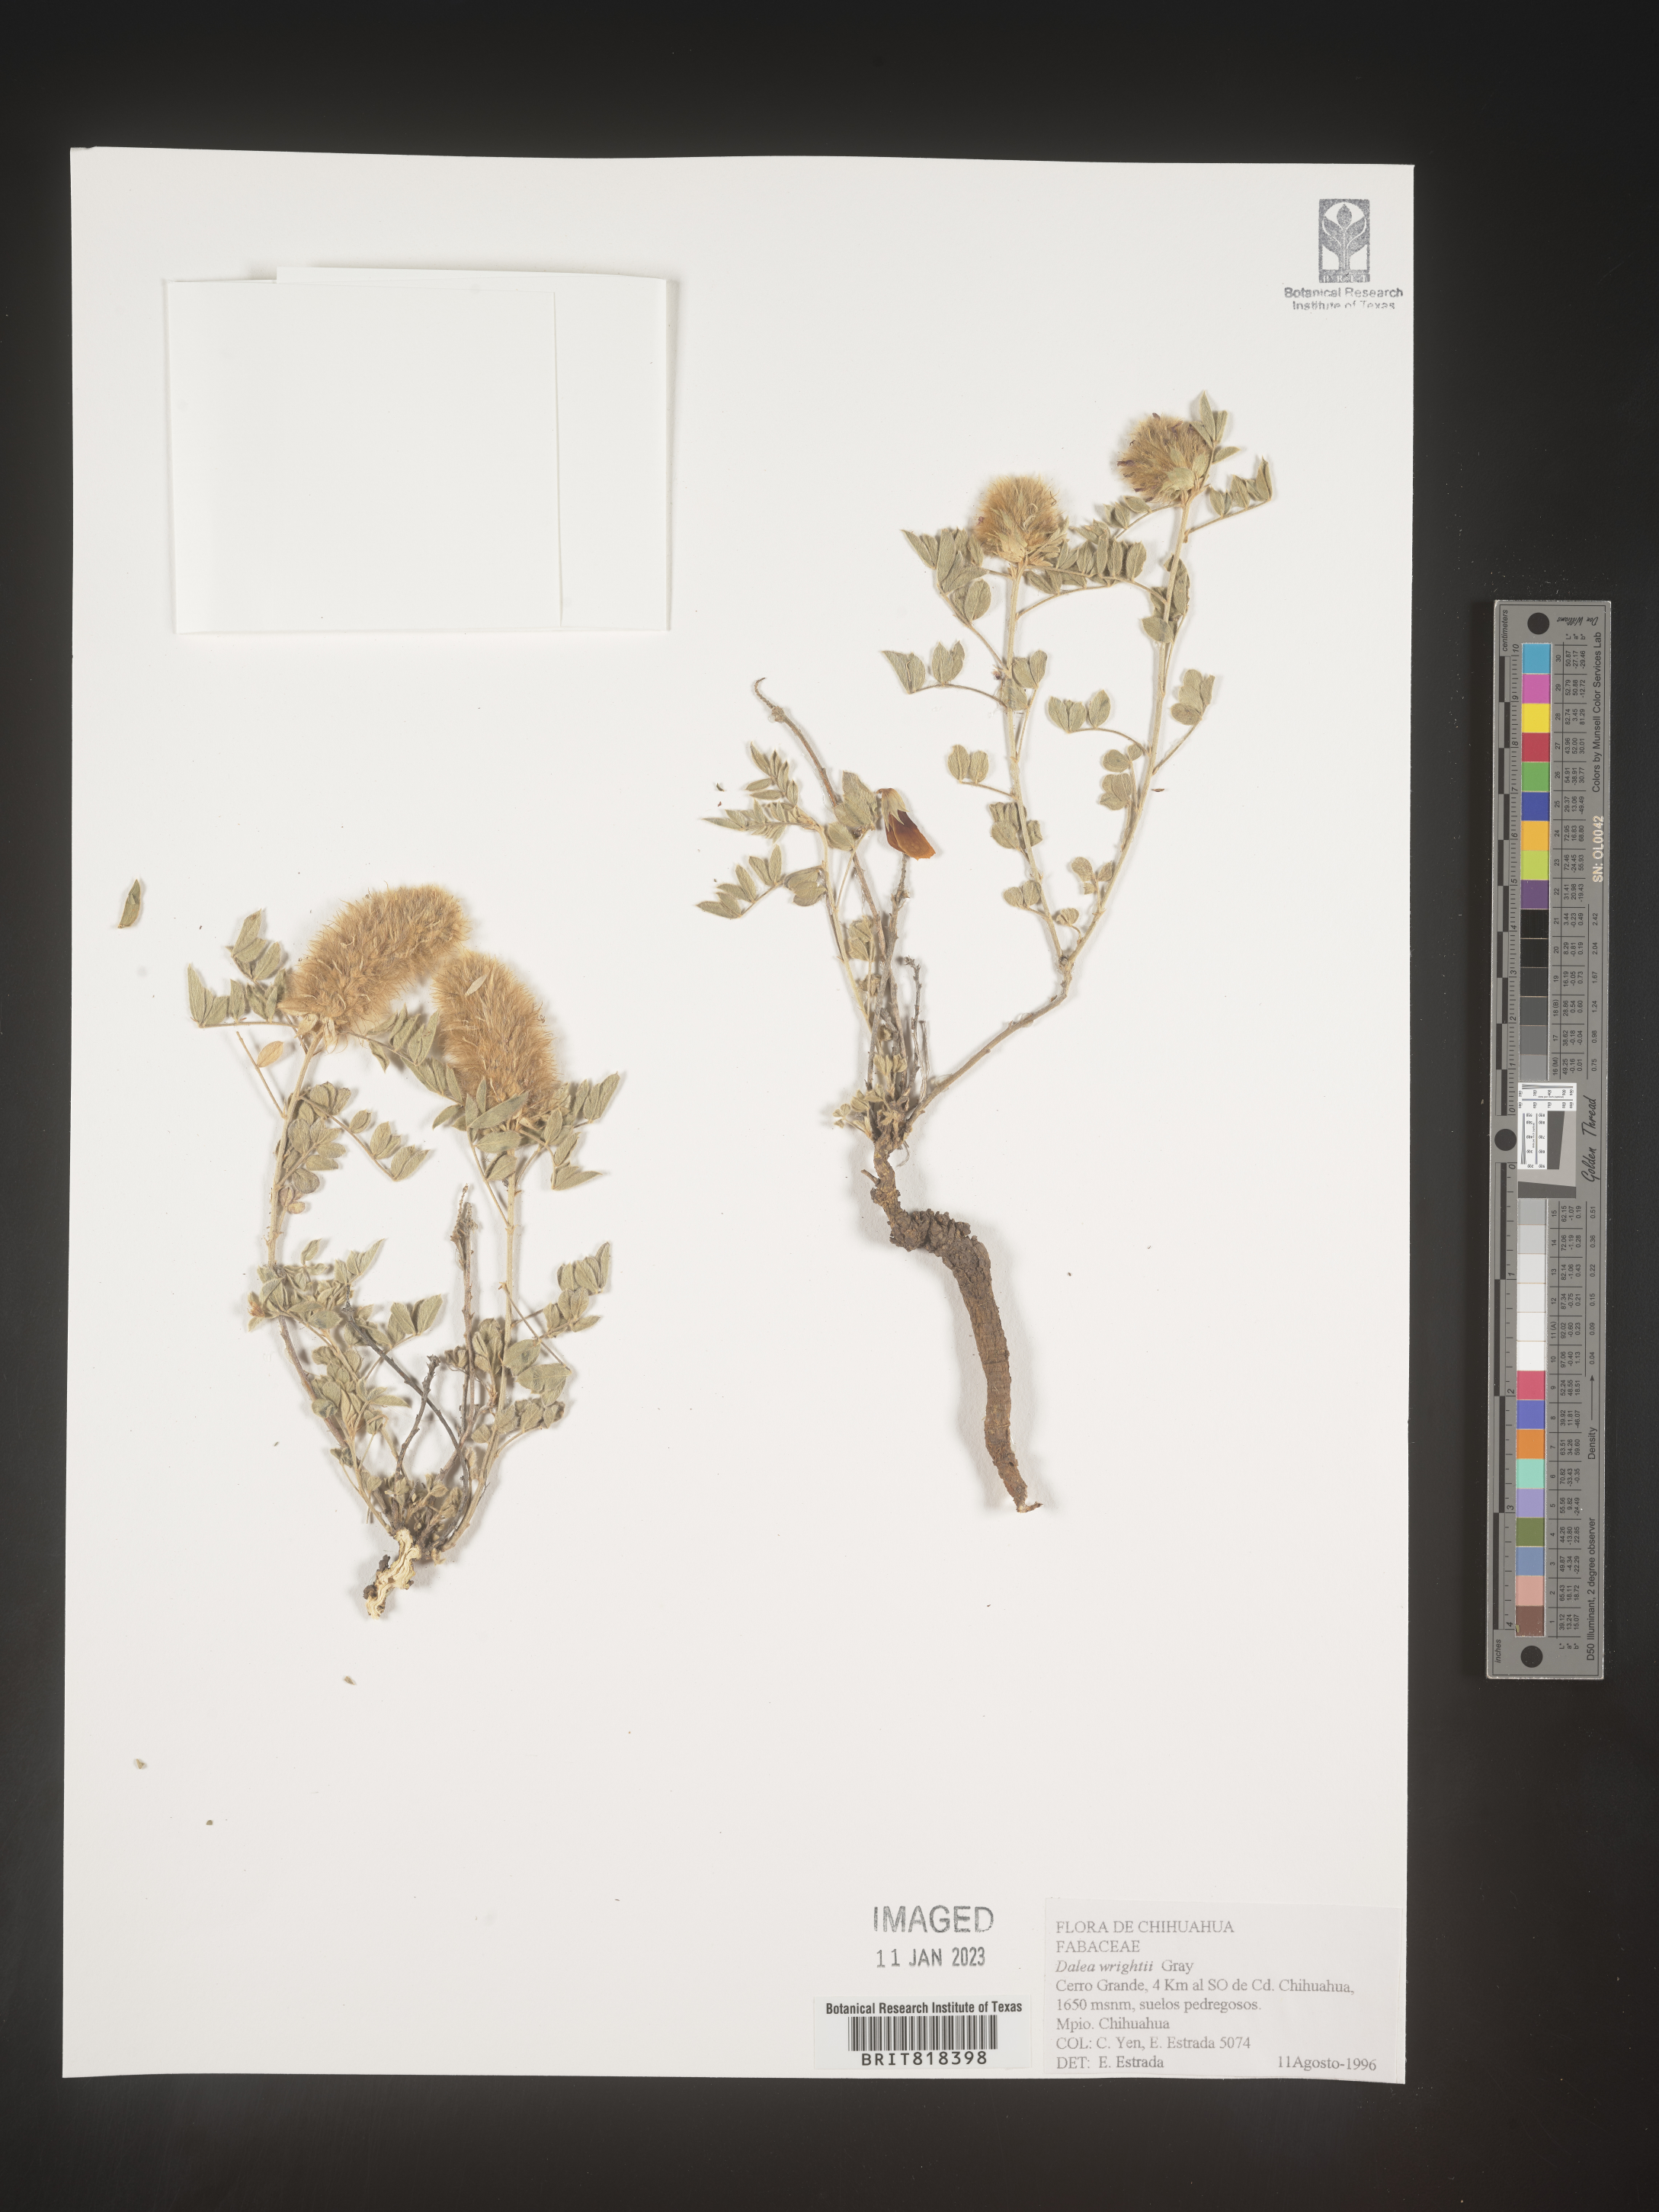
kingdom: Plantae
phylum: Tracheophyta
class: Magnoliopsida
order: Fabales
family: Fabaceae
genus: Dalea
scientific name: Dalea
